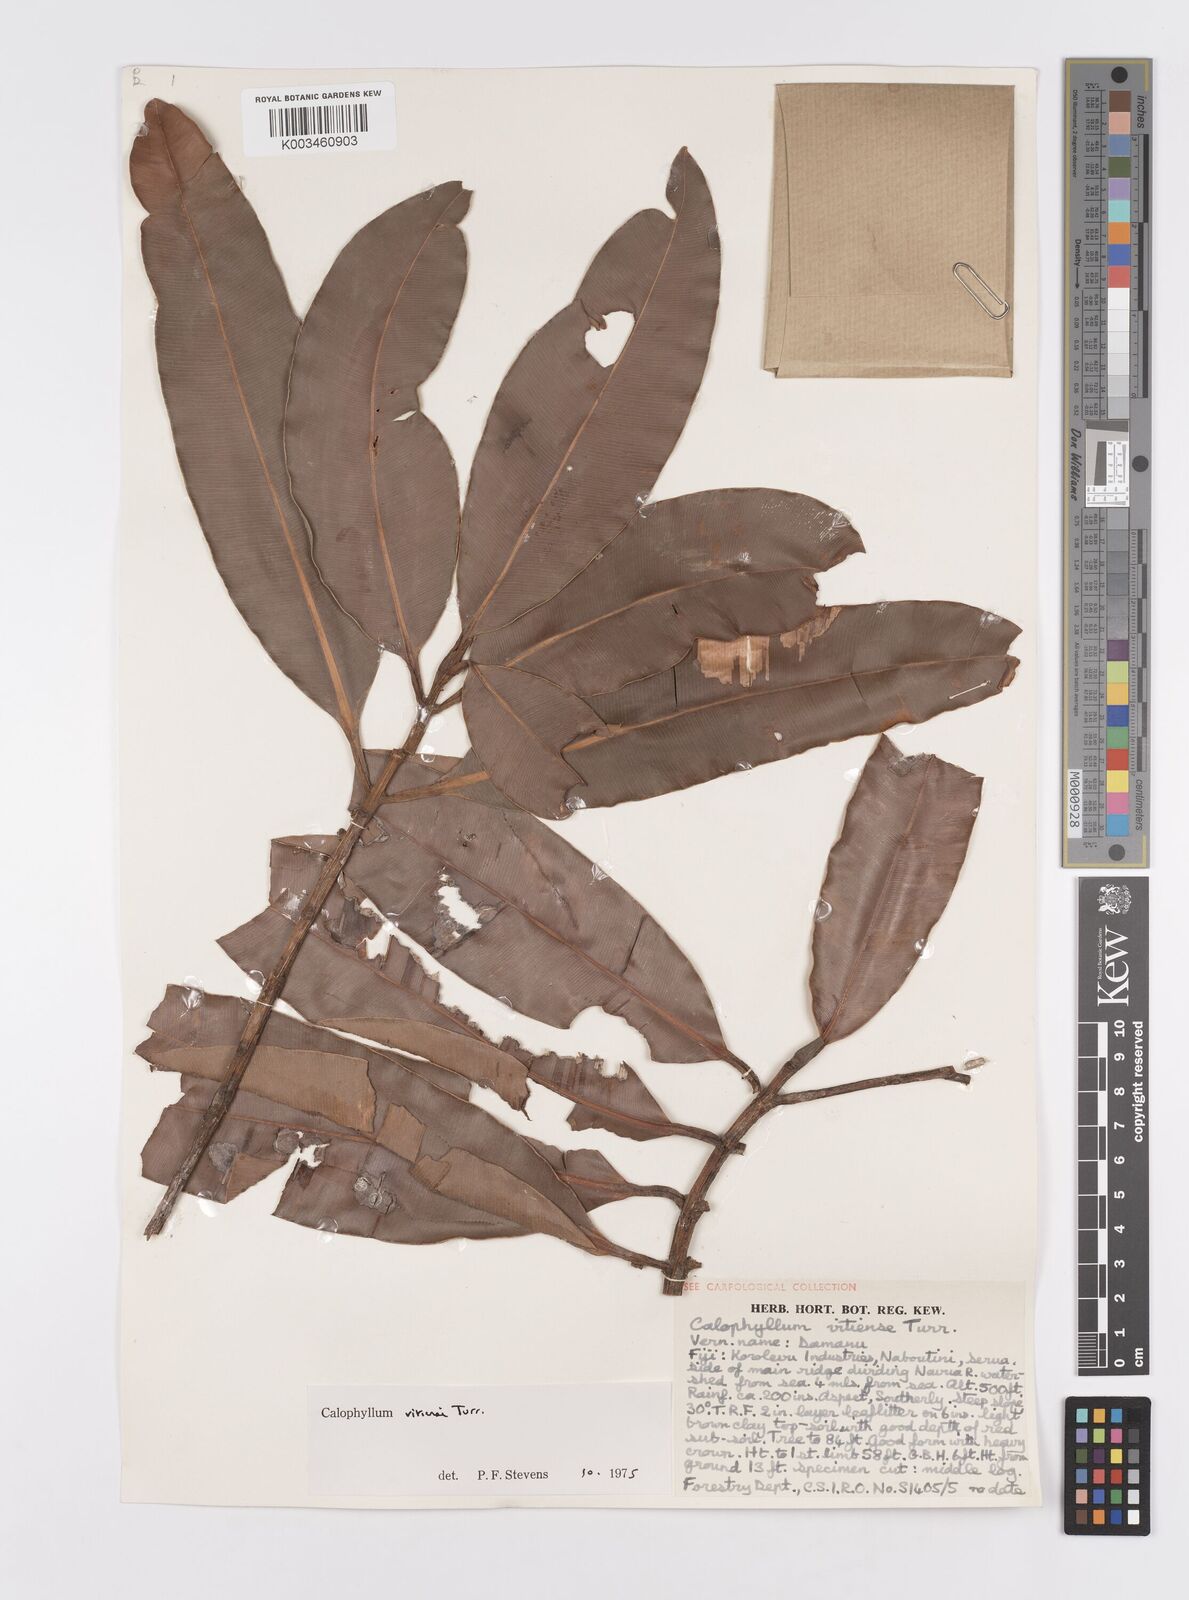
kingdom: Plantae
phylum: Tracheophyta
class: Magnoliopsida
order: Malpighiales
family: Calophyllaceae
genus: Calophyllum
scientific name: Calophyllum vitiense
